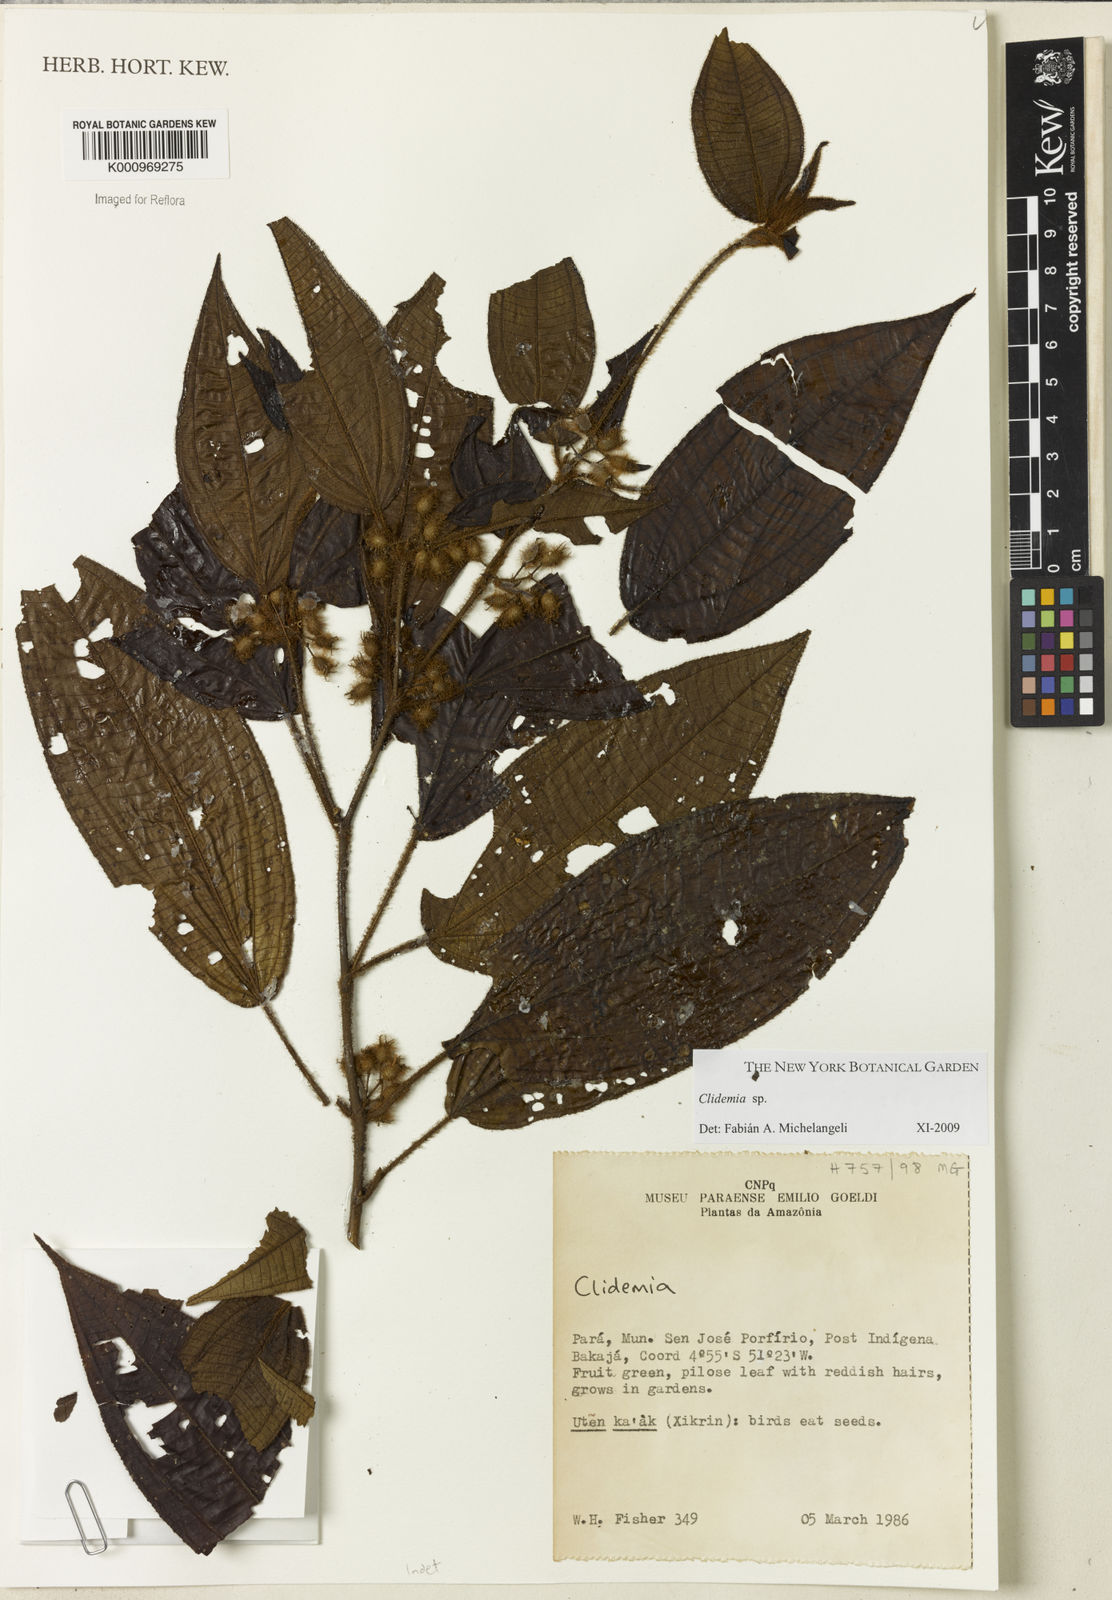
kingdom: Plantae
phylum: Tracheophyta
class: Magnoliopsida
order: Myrtales
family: Melastomataceae
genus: Miconia
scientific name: Miconia
